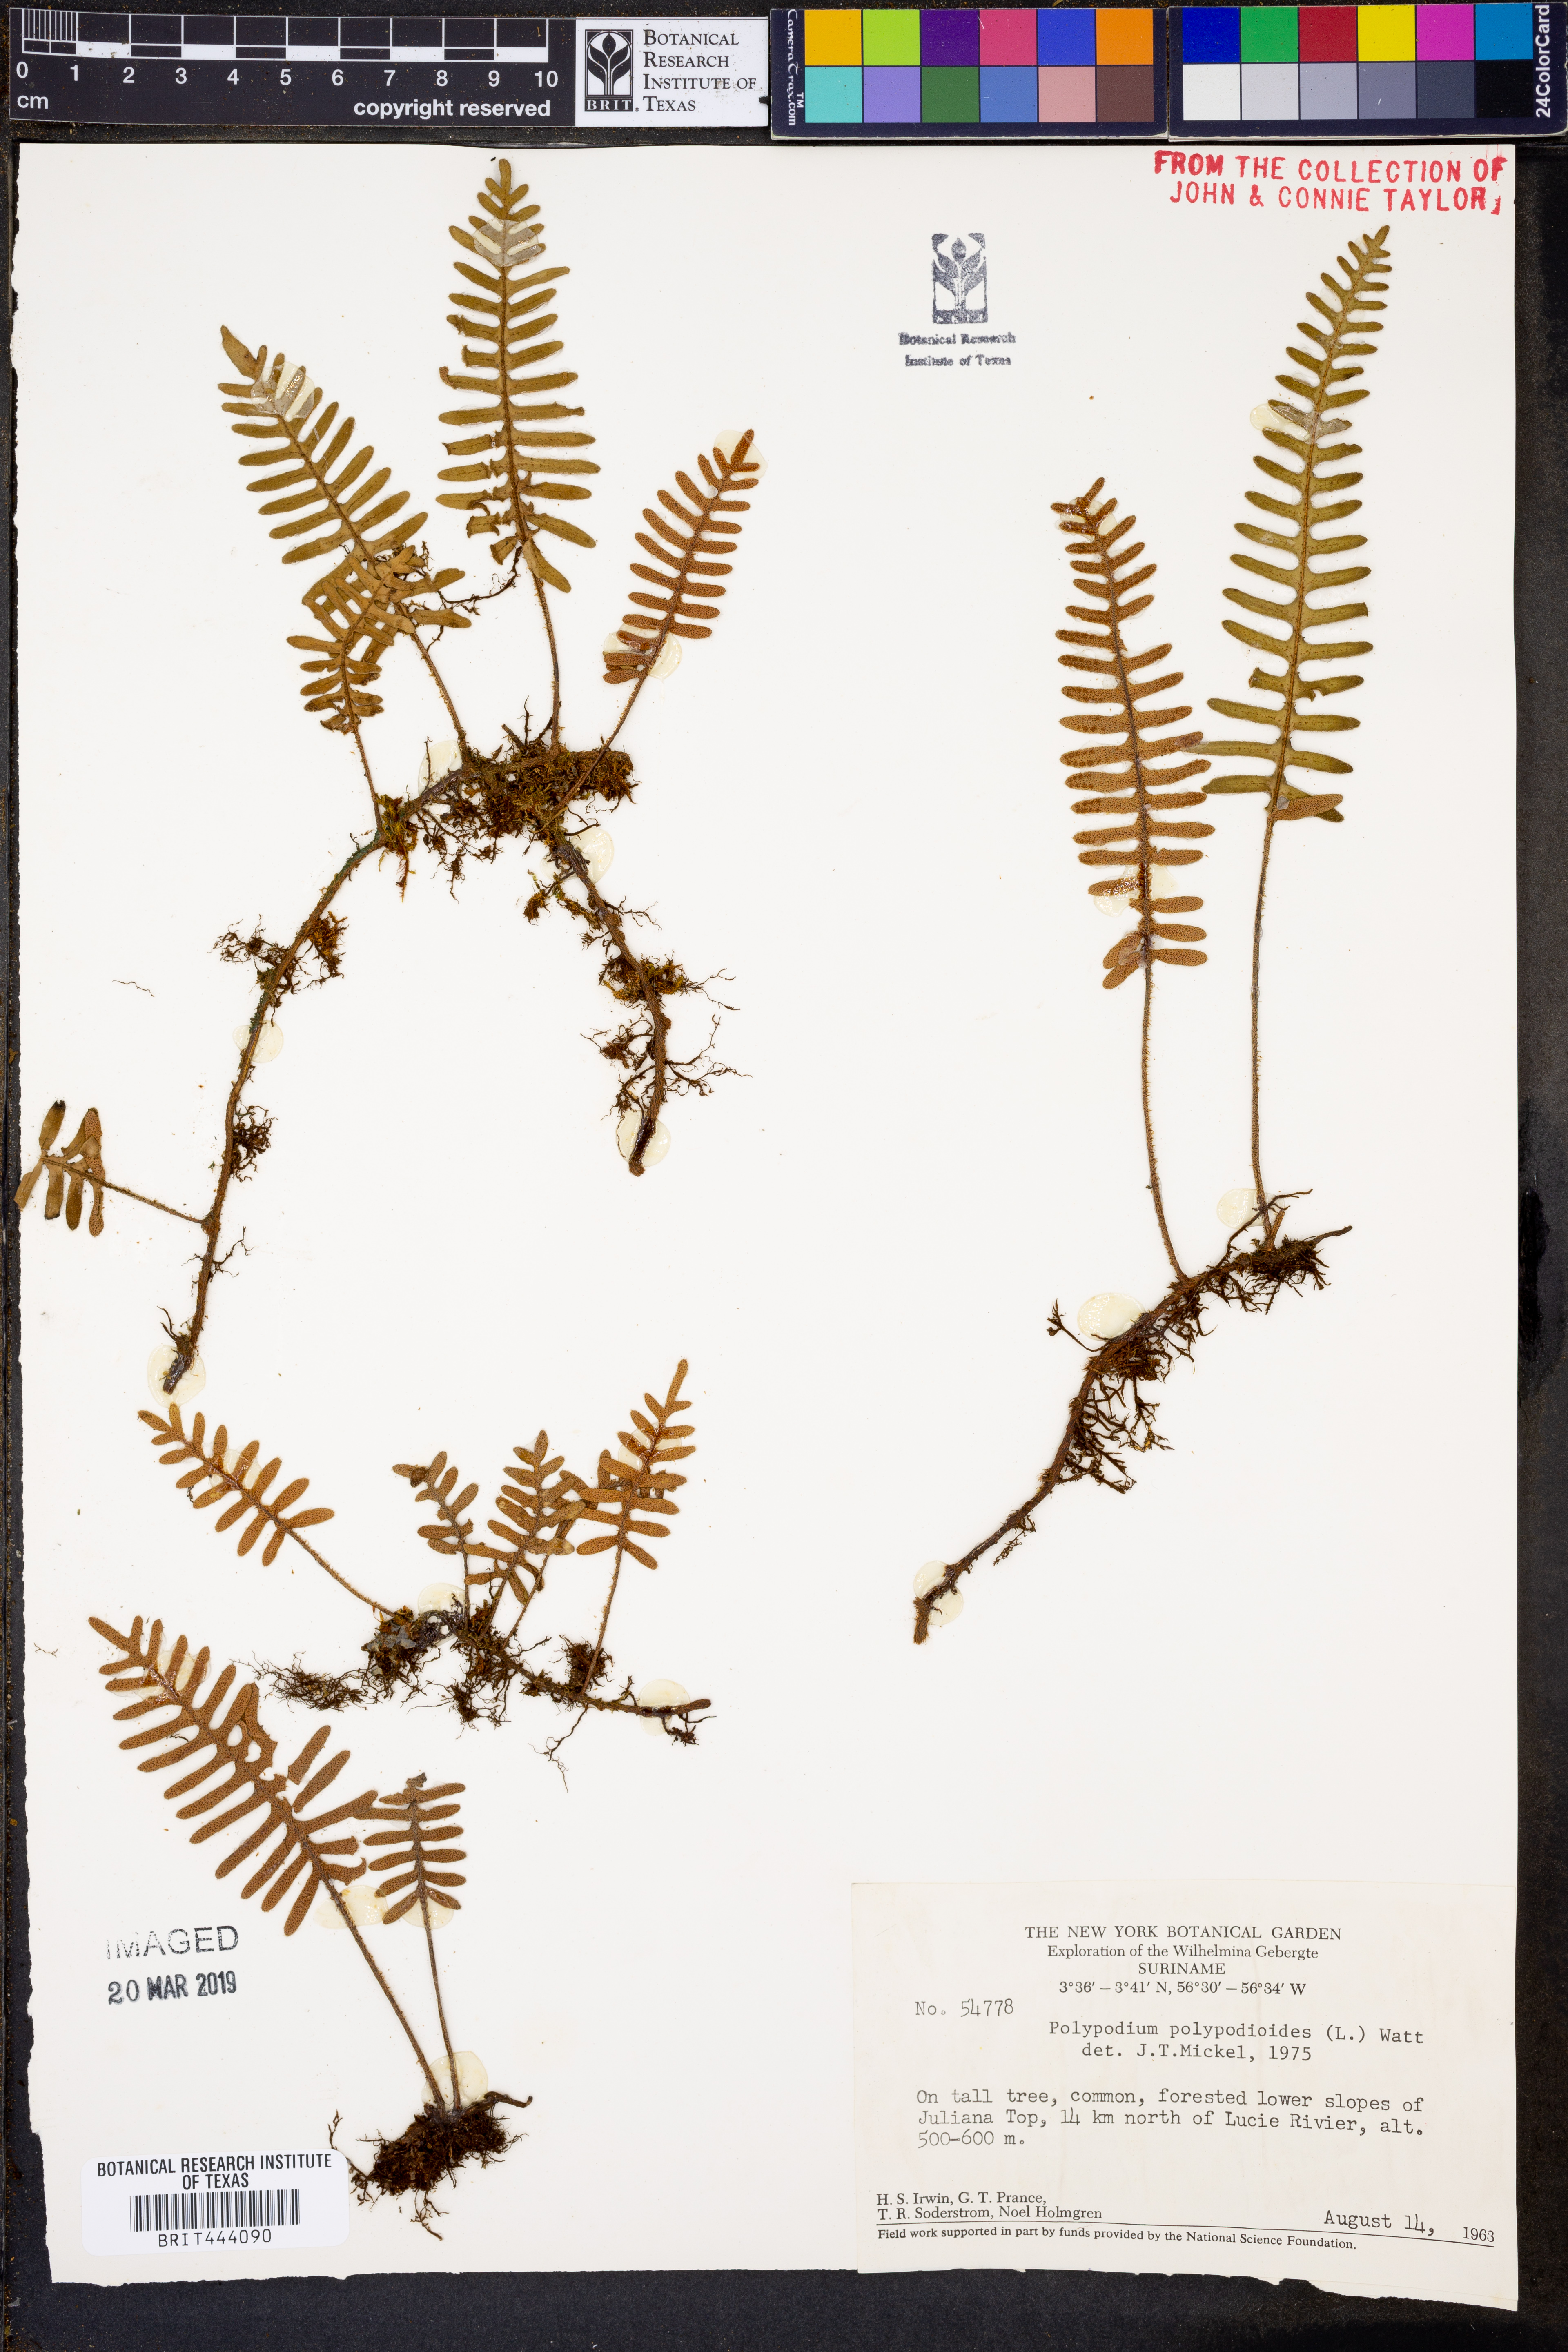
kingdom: Plantae
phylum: Tracheophyta
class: Polypodiopsida
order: Polypodiales
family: Polypodiaceae
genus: Pleopeltis
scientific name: Pleopeltis polypodioides
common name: Resurrection fern
